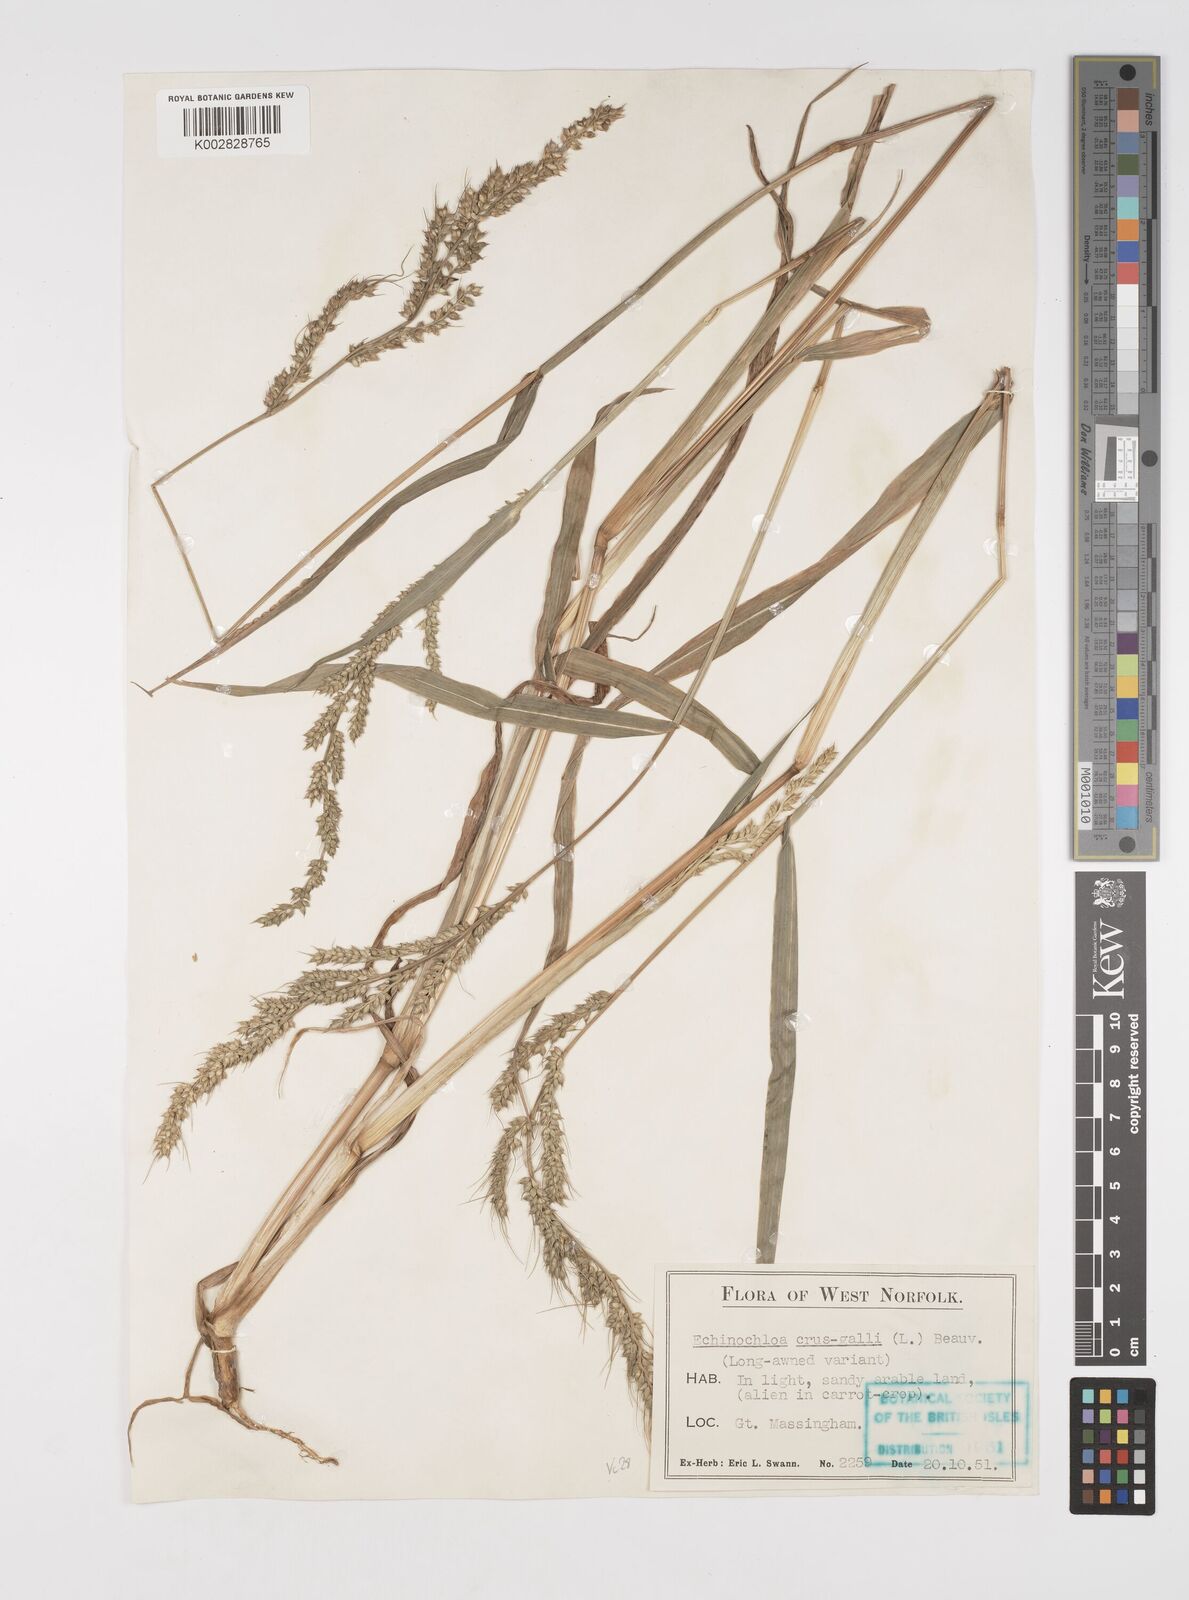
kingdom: Plantae
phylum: Tracheophyta
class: Liliopsida
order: Poales
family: Poaceae
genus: Echinochloa
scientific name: Echinochloa crus-galli
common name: Cockspur
